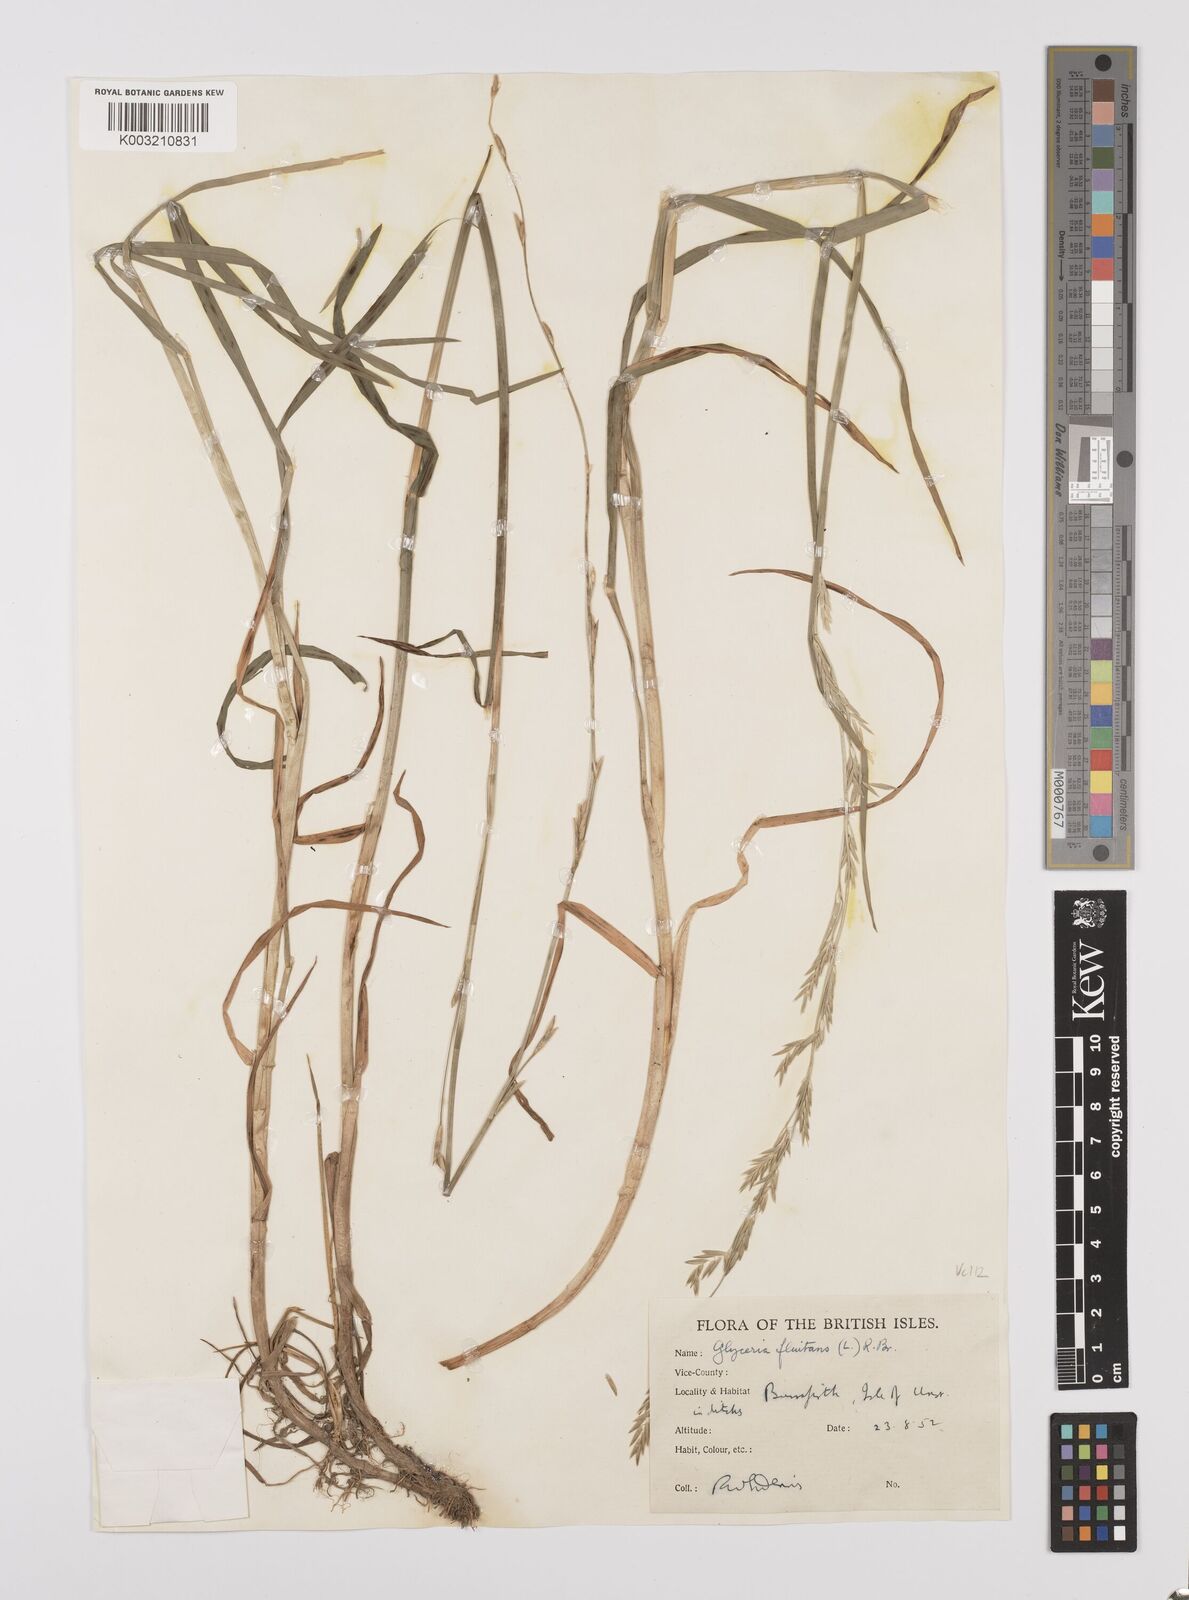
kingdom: Plantae
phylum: Tracheophyta
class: Liliopsida
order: Poales
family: Poaceae
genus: Glyceria
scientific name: Glyceria fluitans
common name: Floating sweet-grass
